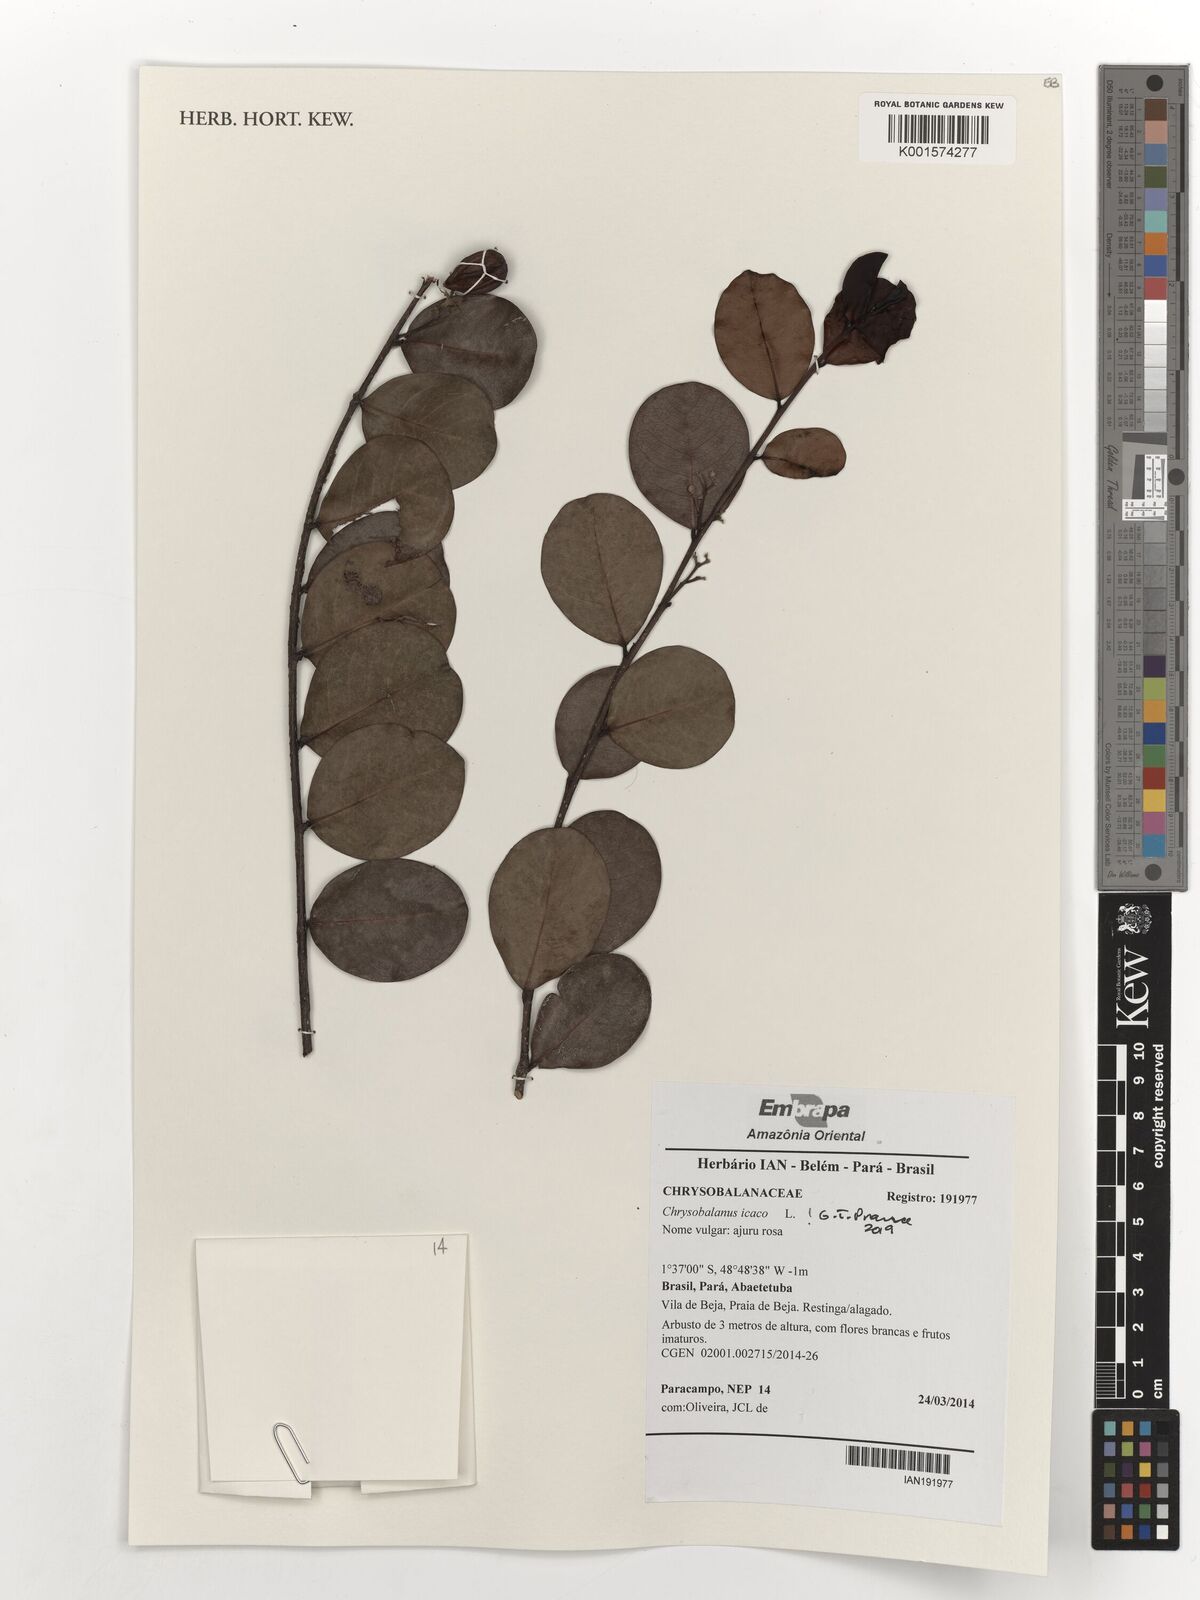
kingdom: Plantae
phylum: Tracheophyta
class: Magnoliopsida
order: Malpighiales
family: Chrysobalanaceae
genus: Chrysobalanus
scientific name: Chrysobalanus icaco
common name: Coco plum
